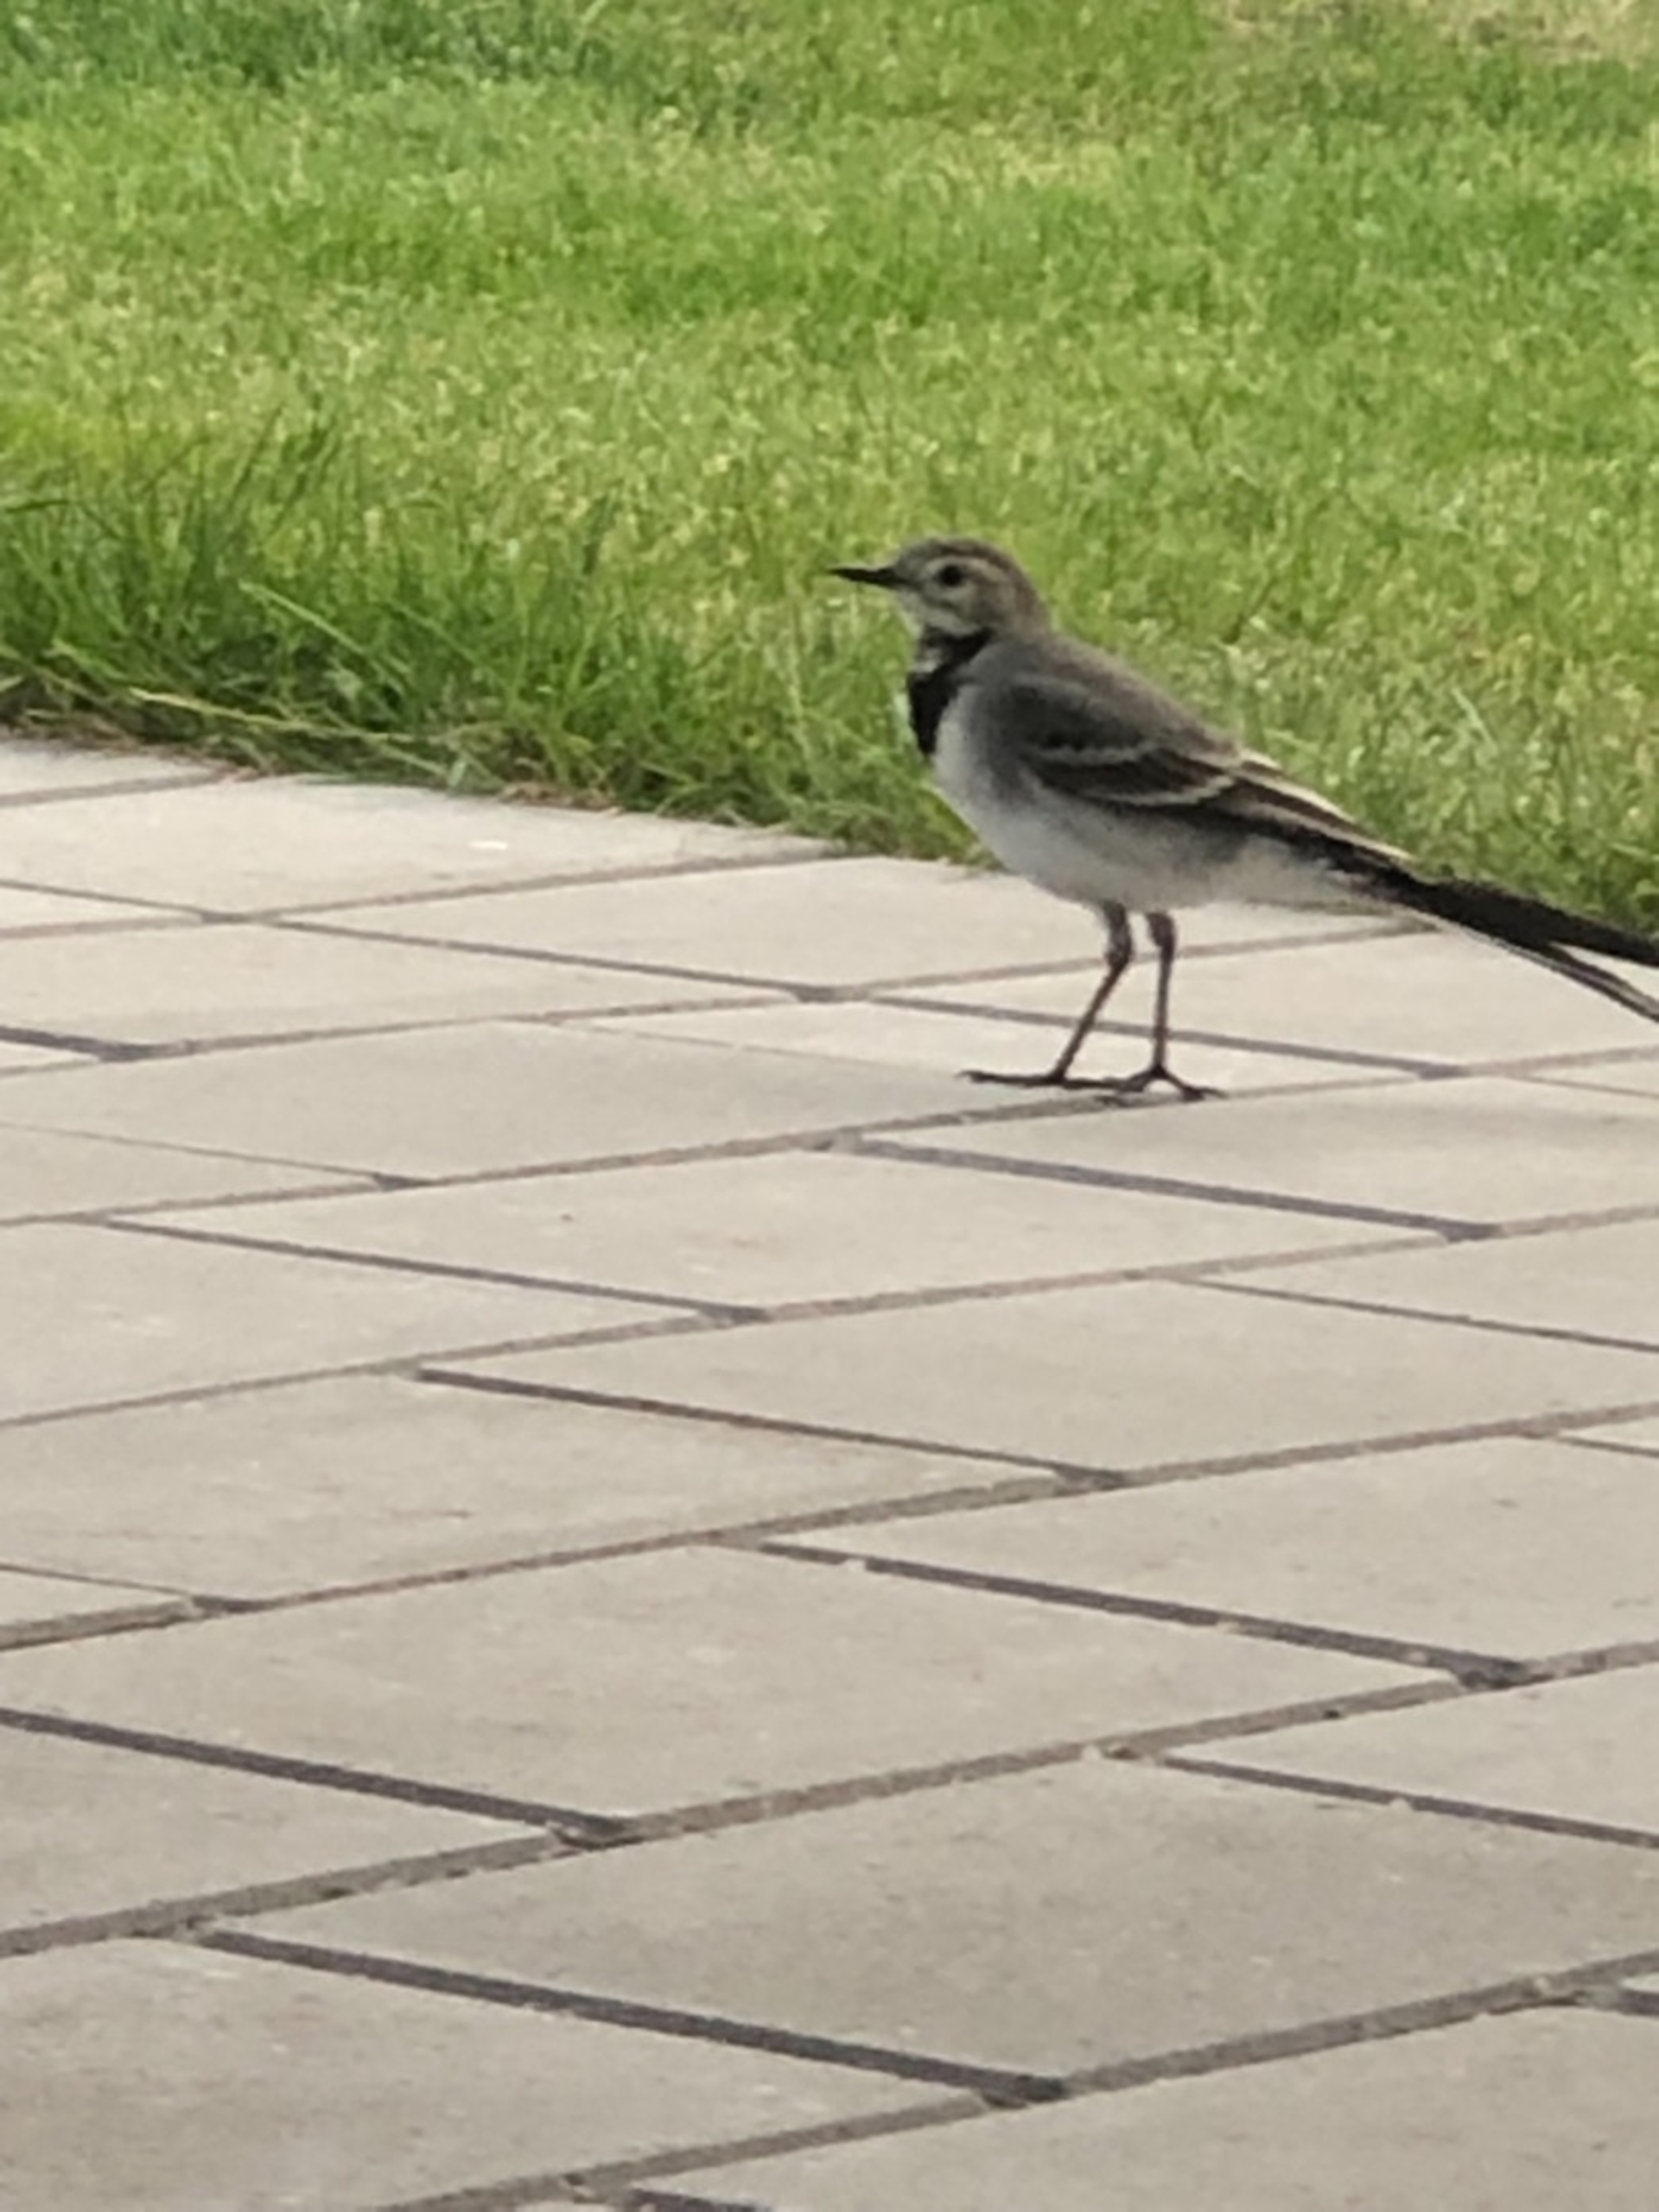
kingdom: Animalia
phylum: Chordata
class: Aves
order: Passeriformes
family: Motacillidae
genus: Motacilla
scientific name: Motacilla alba
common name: Hvid vipstjert
